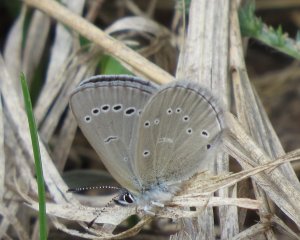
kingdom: Animalia
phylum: Arthropoda
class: Insecta
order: Lepidoptera
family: Lycaenidae
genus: Glaucopsyche
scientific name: Glaucopsyche lygdamus
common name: Silvery Blue
